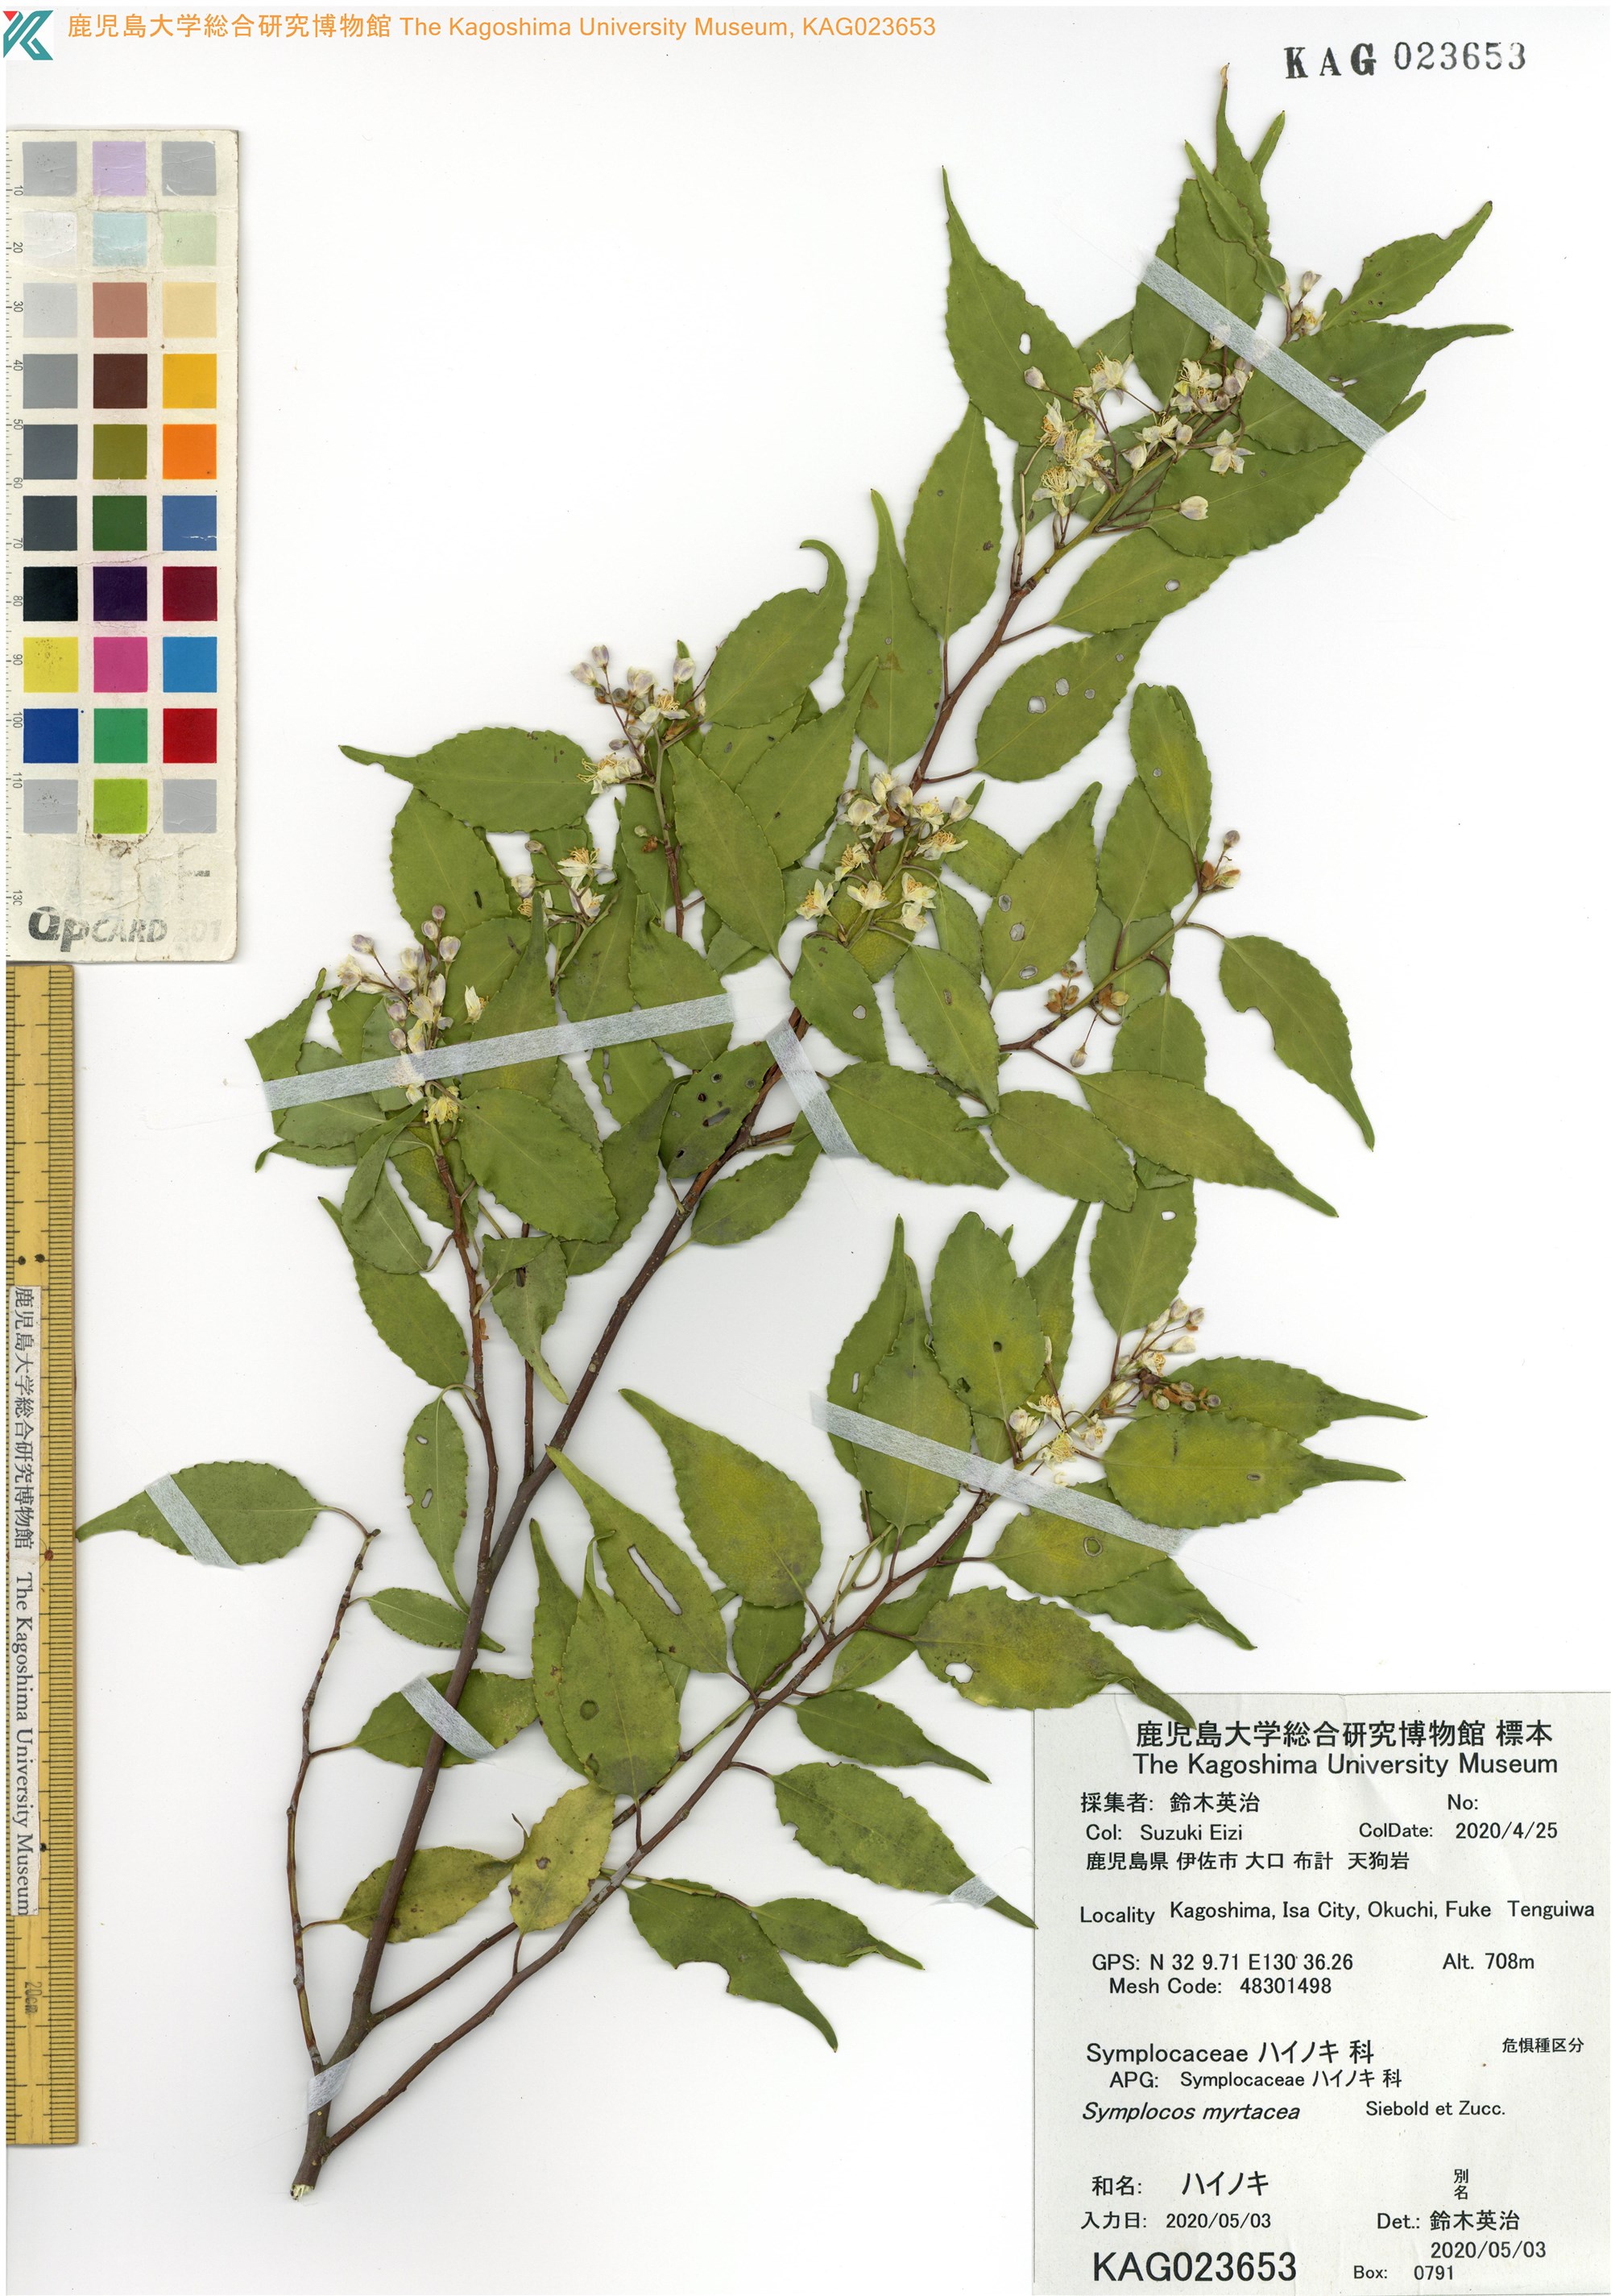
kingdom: Plantae
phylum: Tracheophyta
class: Magnoliopsida
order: Ericales
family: Symplocaceae
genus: Symplocos
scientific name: Symplocos myrtacea
